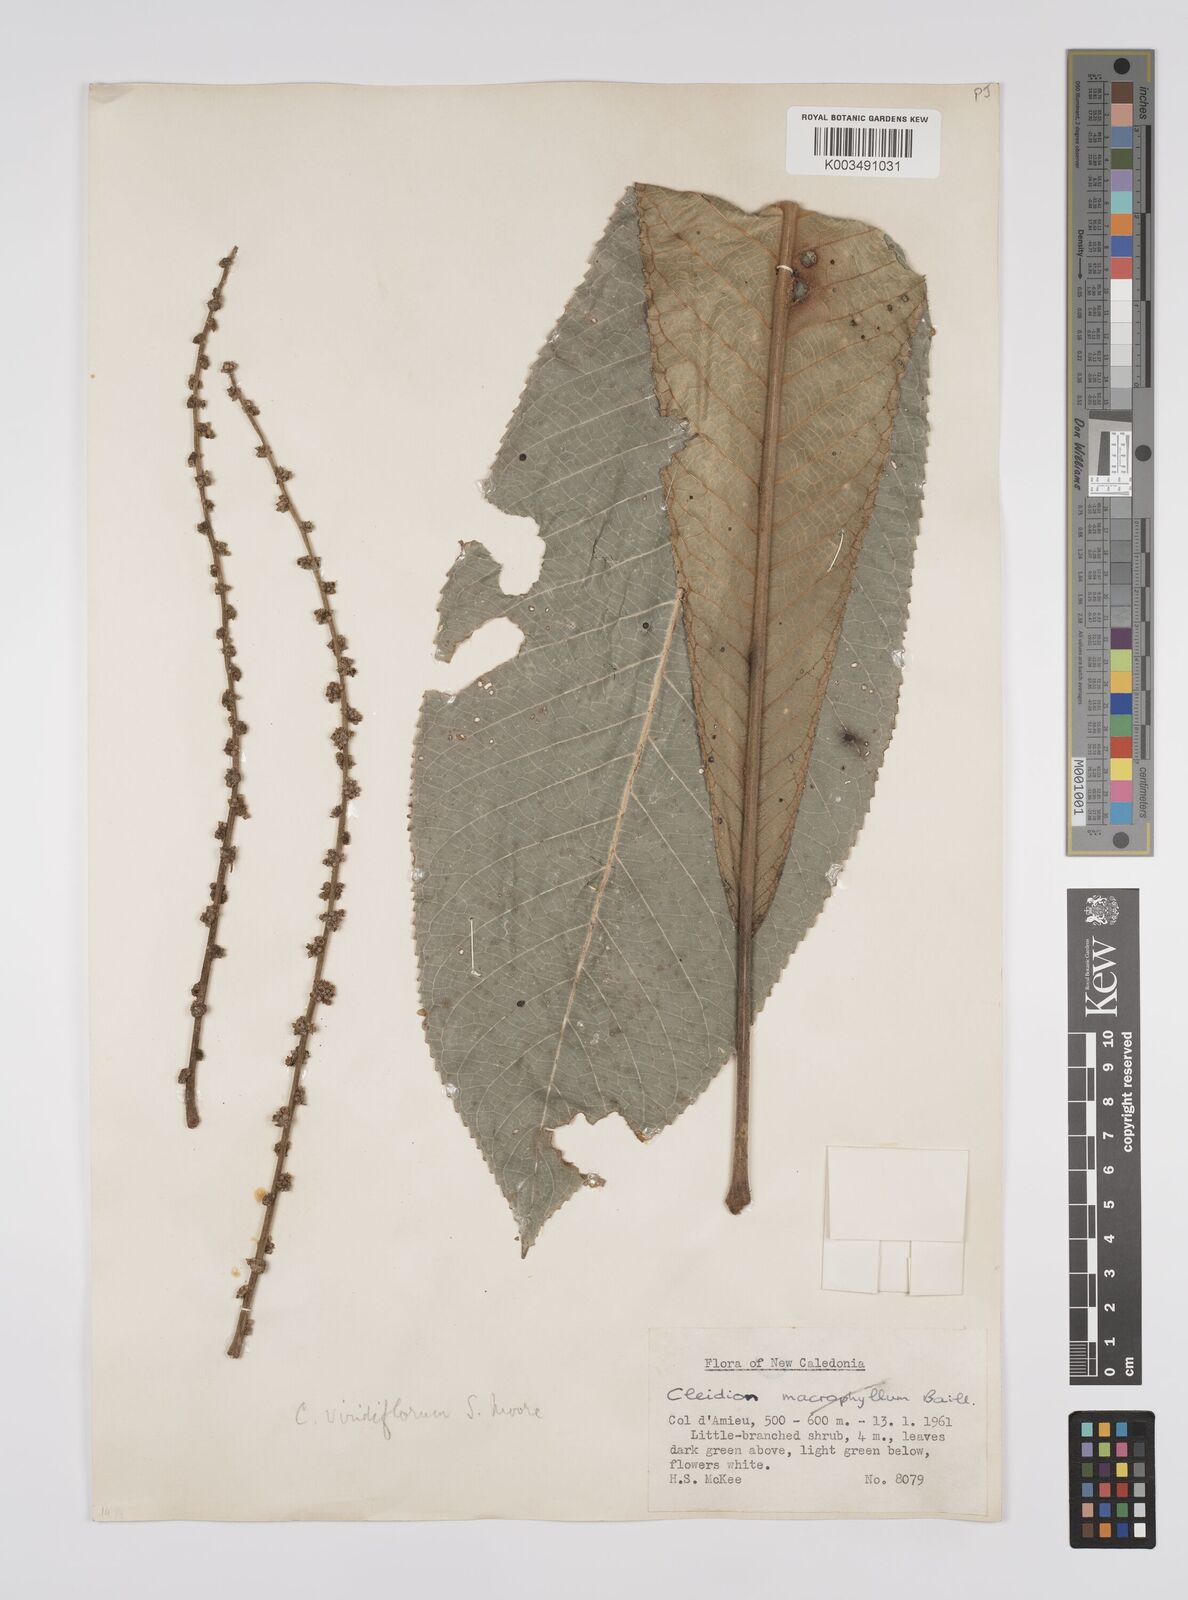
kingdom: Plantae
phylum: Tracheophyta
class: Magnoliopsida
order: Malpighiales
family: Euphorbiaceae
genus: Cleidion
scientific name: Cleidion macrophyllum
